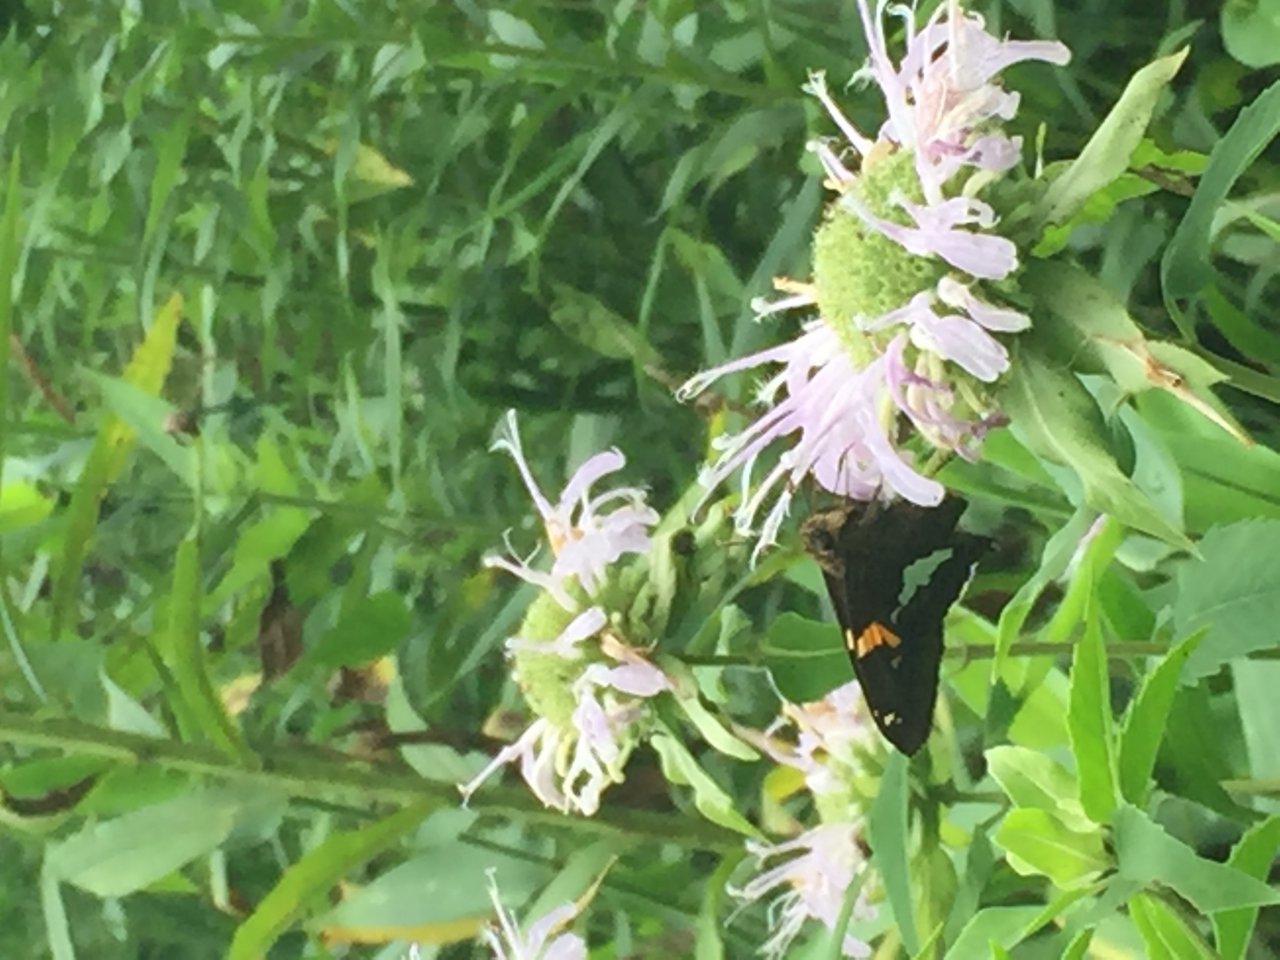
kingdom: Animalia
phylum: Arthropoda
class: Insecta
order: Lepidoptera
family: Hesperiidae
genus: Epargyreus
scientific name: Epargyreus clarus
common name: Silver-spotted Skipper
